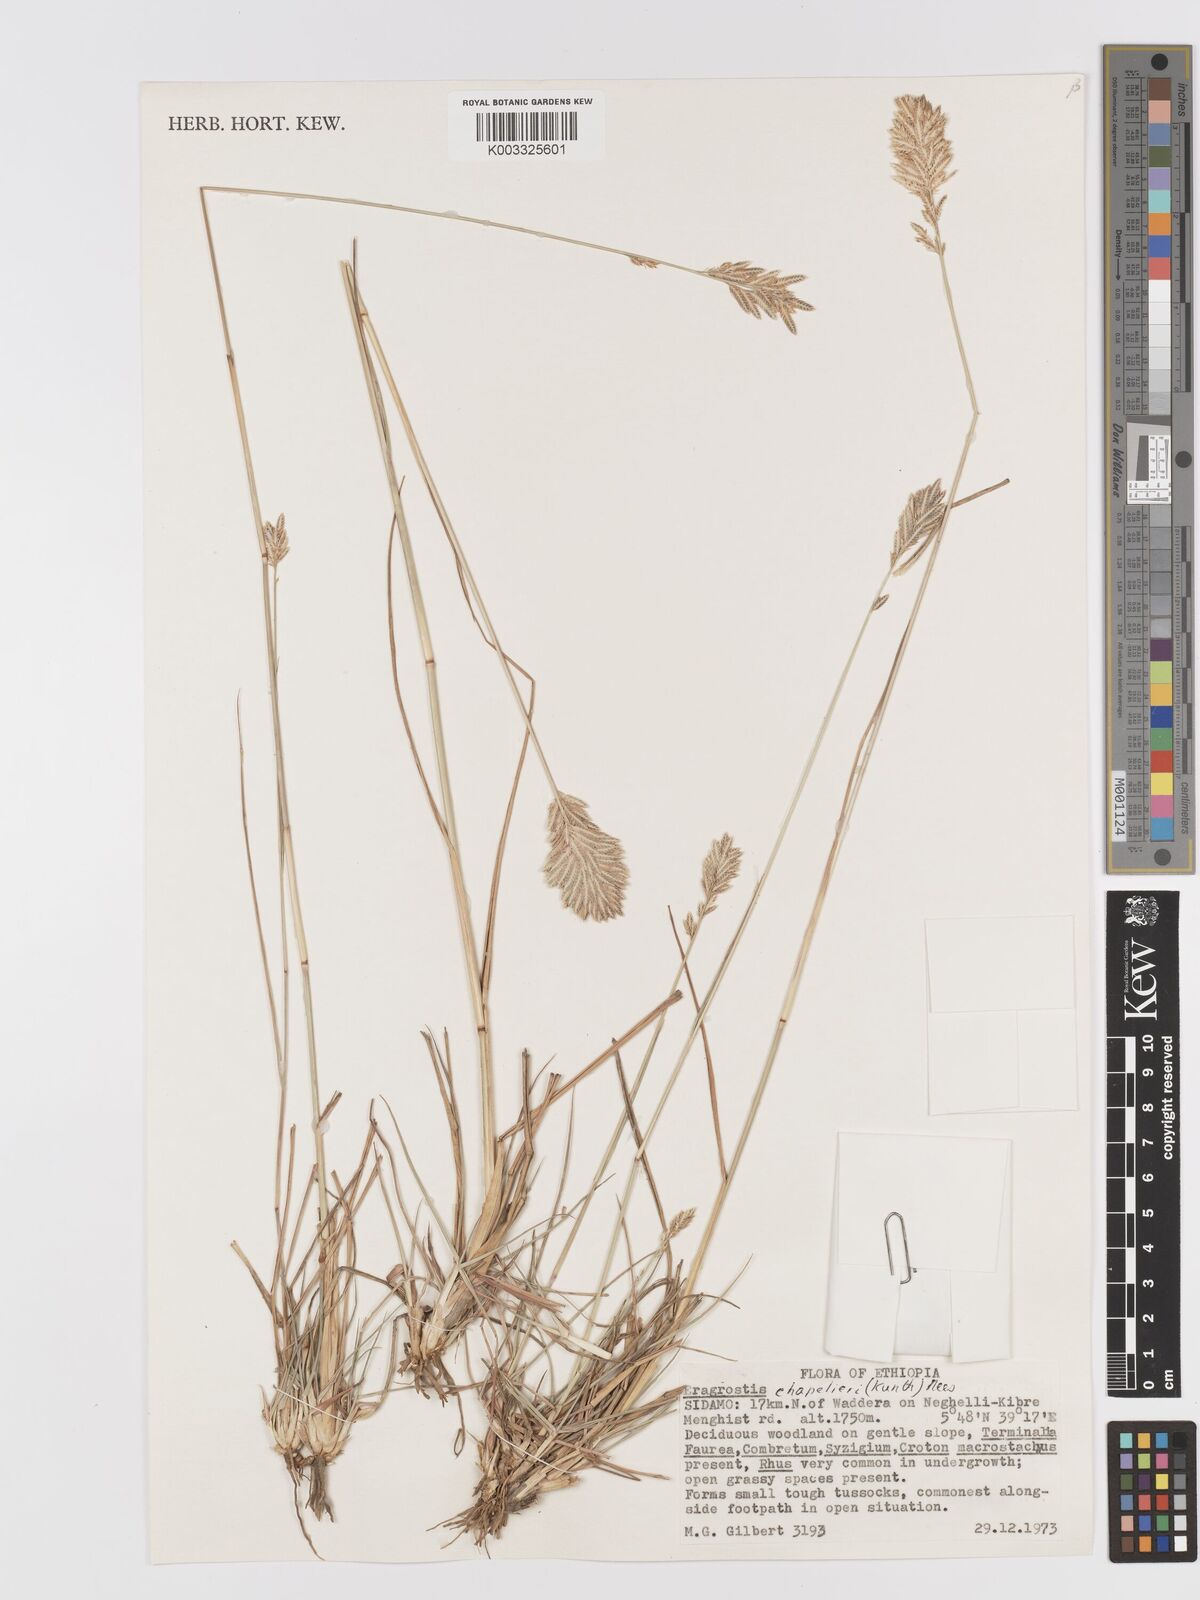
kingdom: Plantae
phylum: Tracheophyta
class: Liliopsida
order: Poales
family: Poaceae
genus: Eragrostis
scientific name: Eragrostis chapelieri
